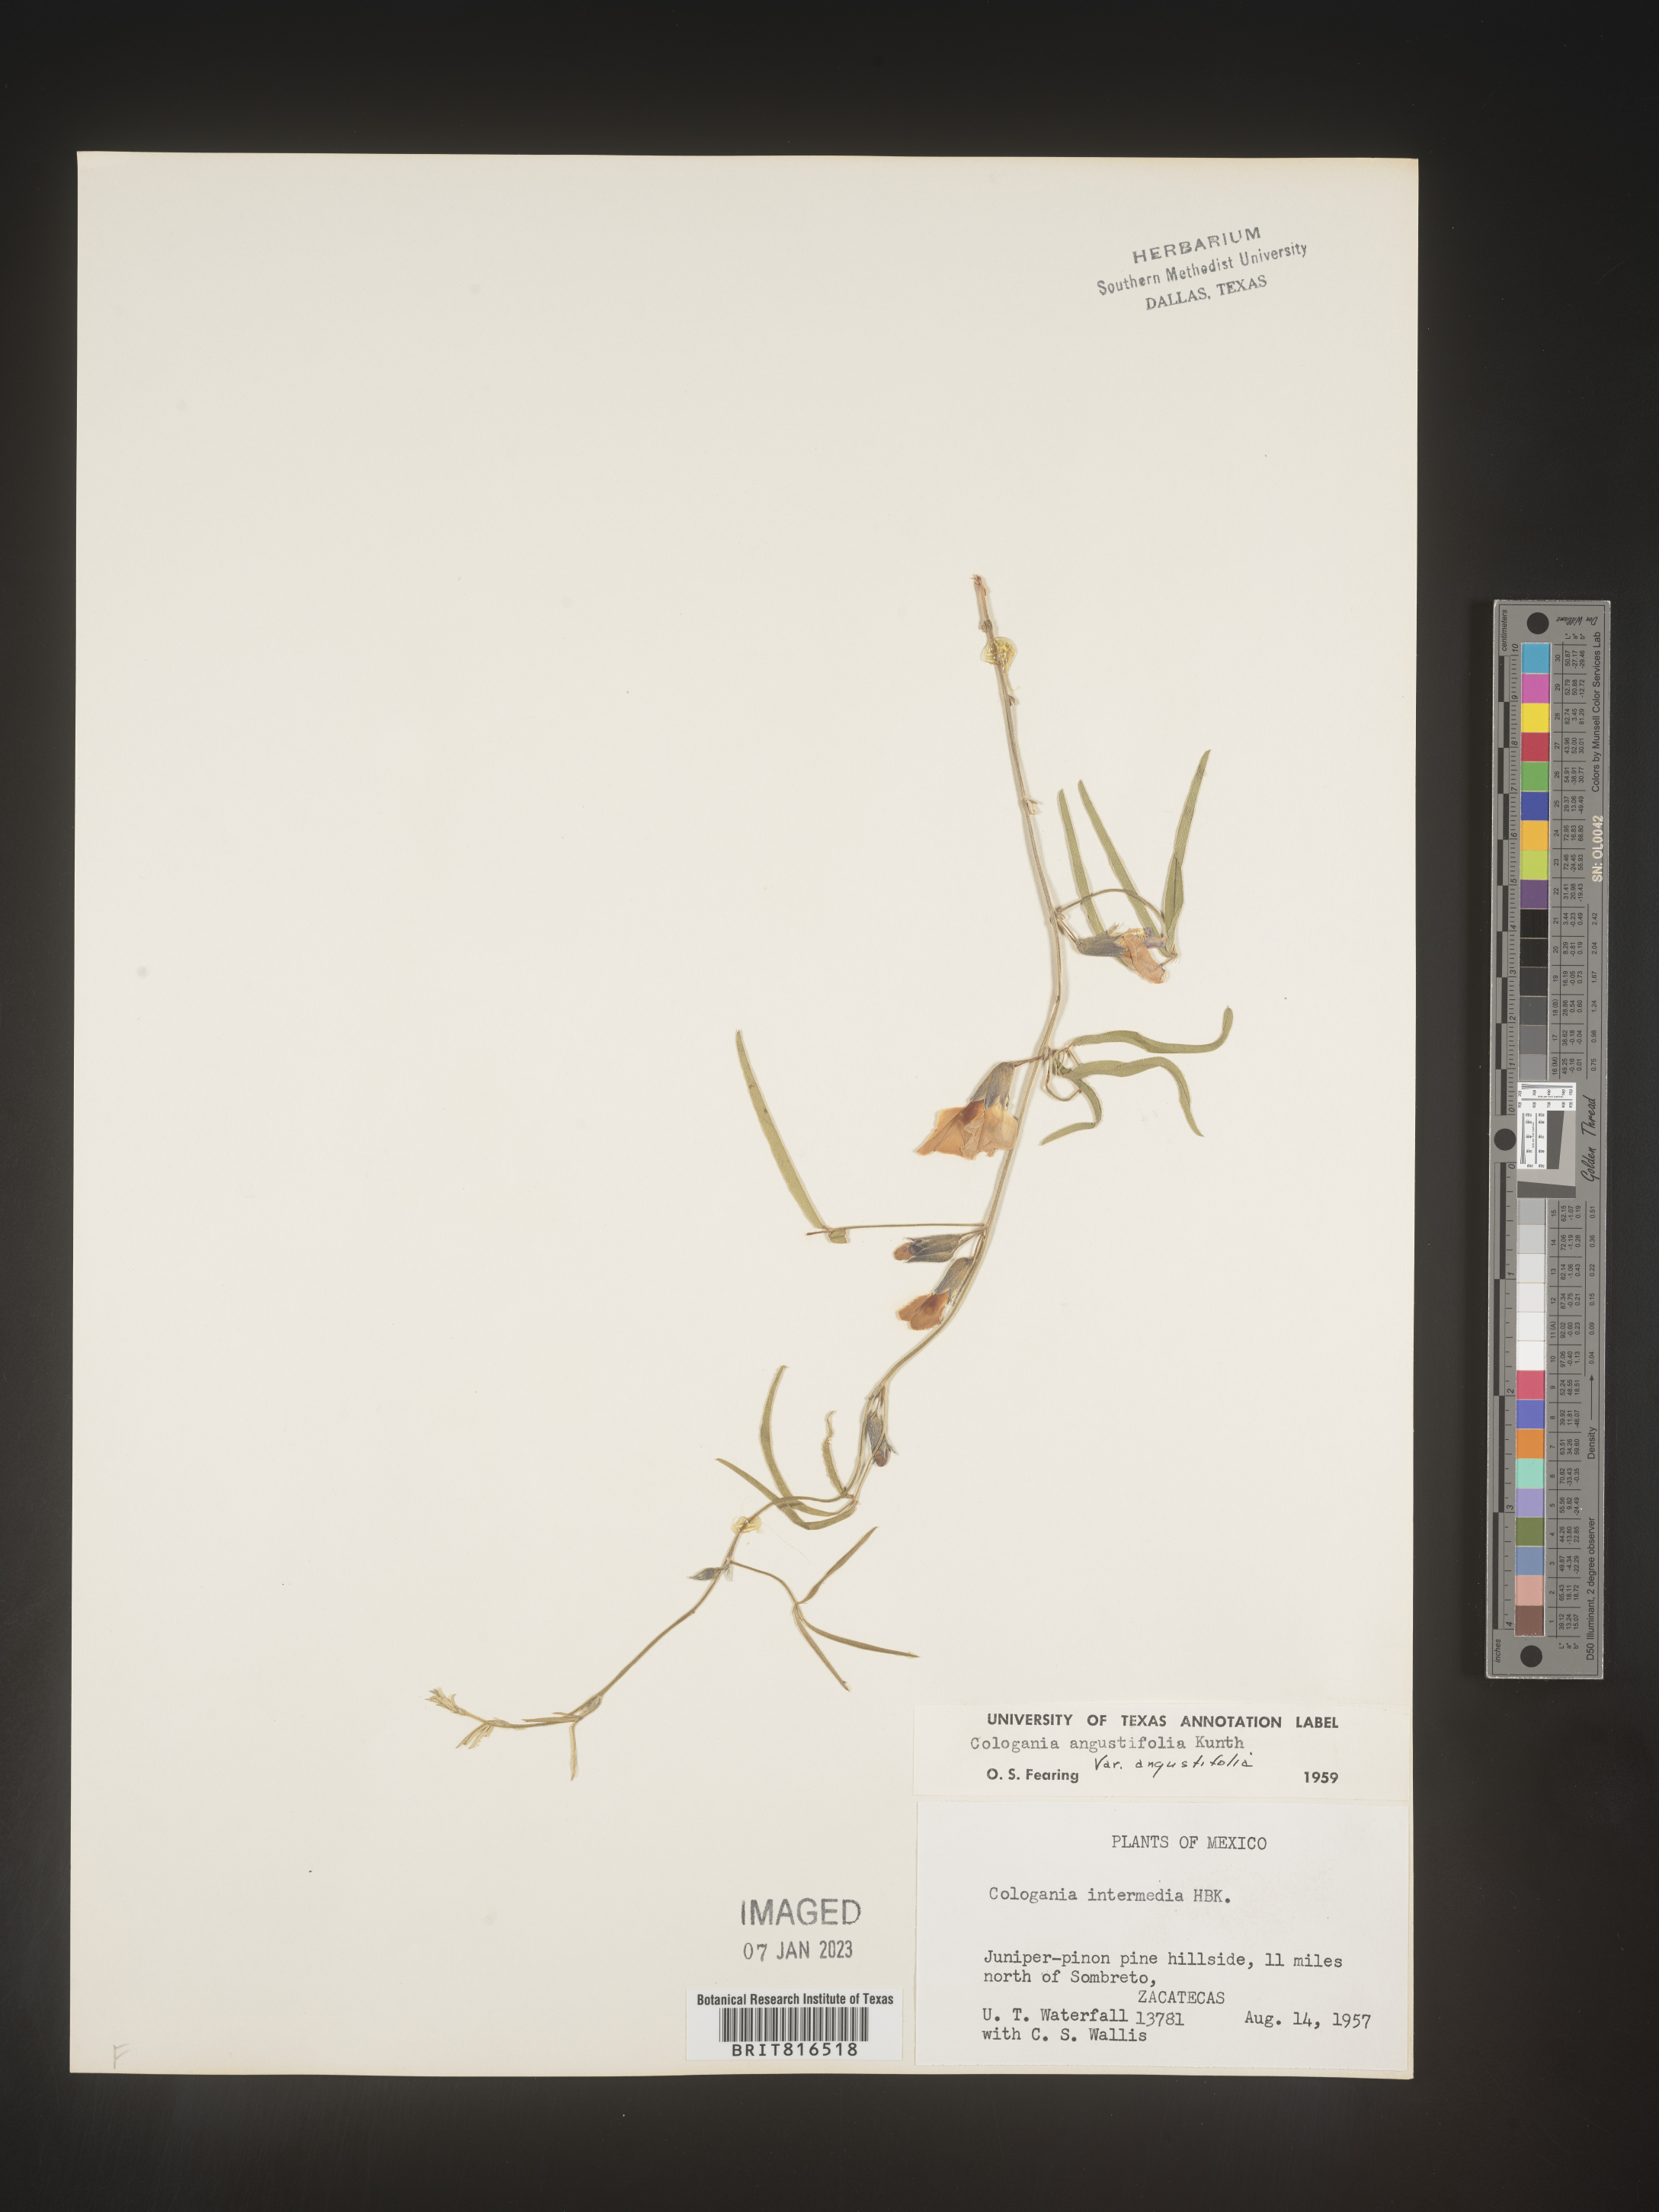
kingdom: Plantae
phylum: Tracheophyta
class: Magnoliopsida
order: Fabales
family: Fabaceae
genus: Cologania
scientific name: Cologania angustifolia
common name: Longleaf cologania
